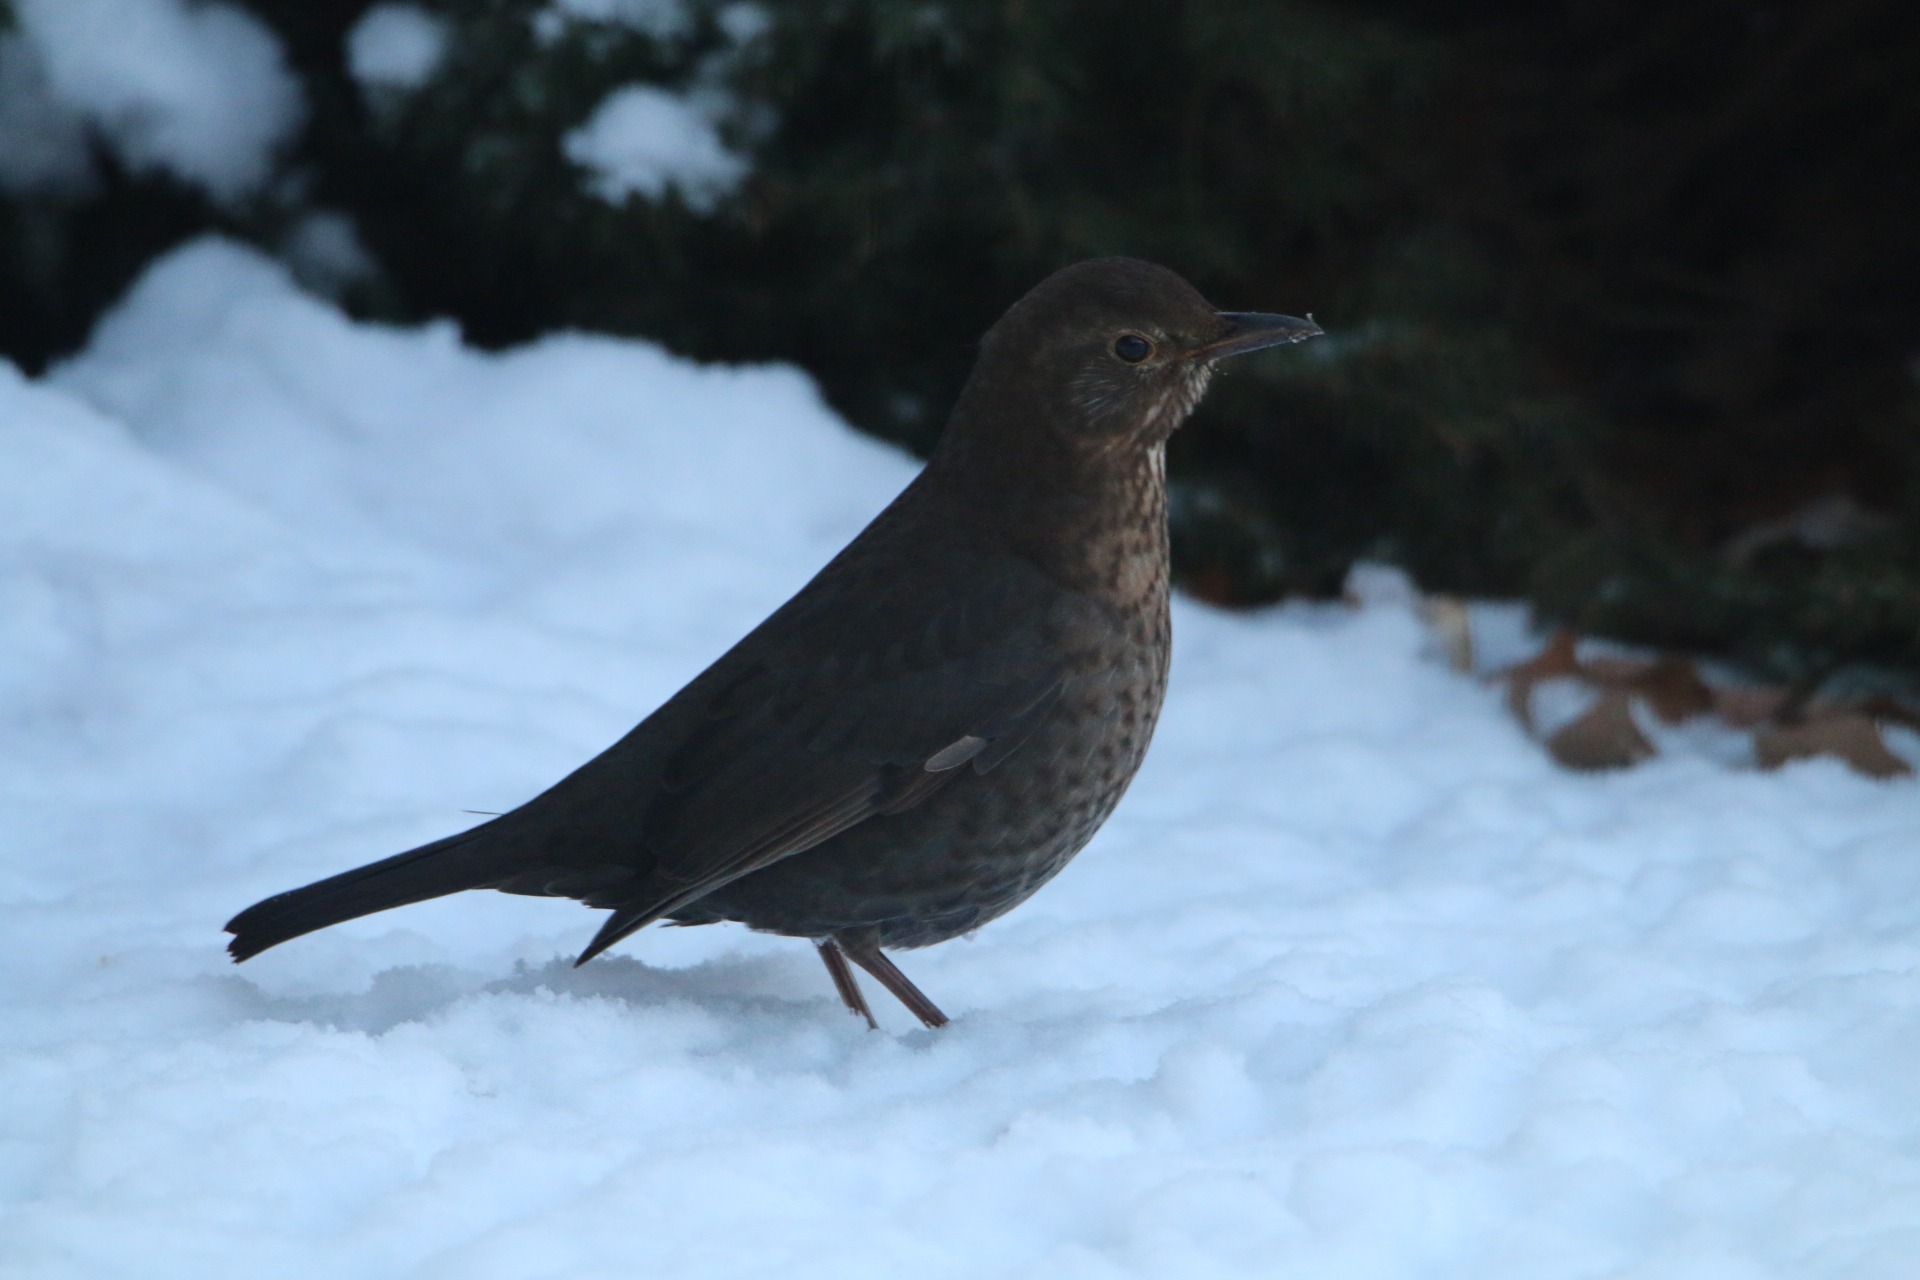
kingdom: Animalia
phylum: Chordata
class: Aves
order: Passeriformes
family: Turdidae
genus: Turdus
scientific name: Turdus merula
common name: Solsort
